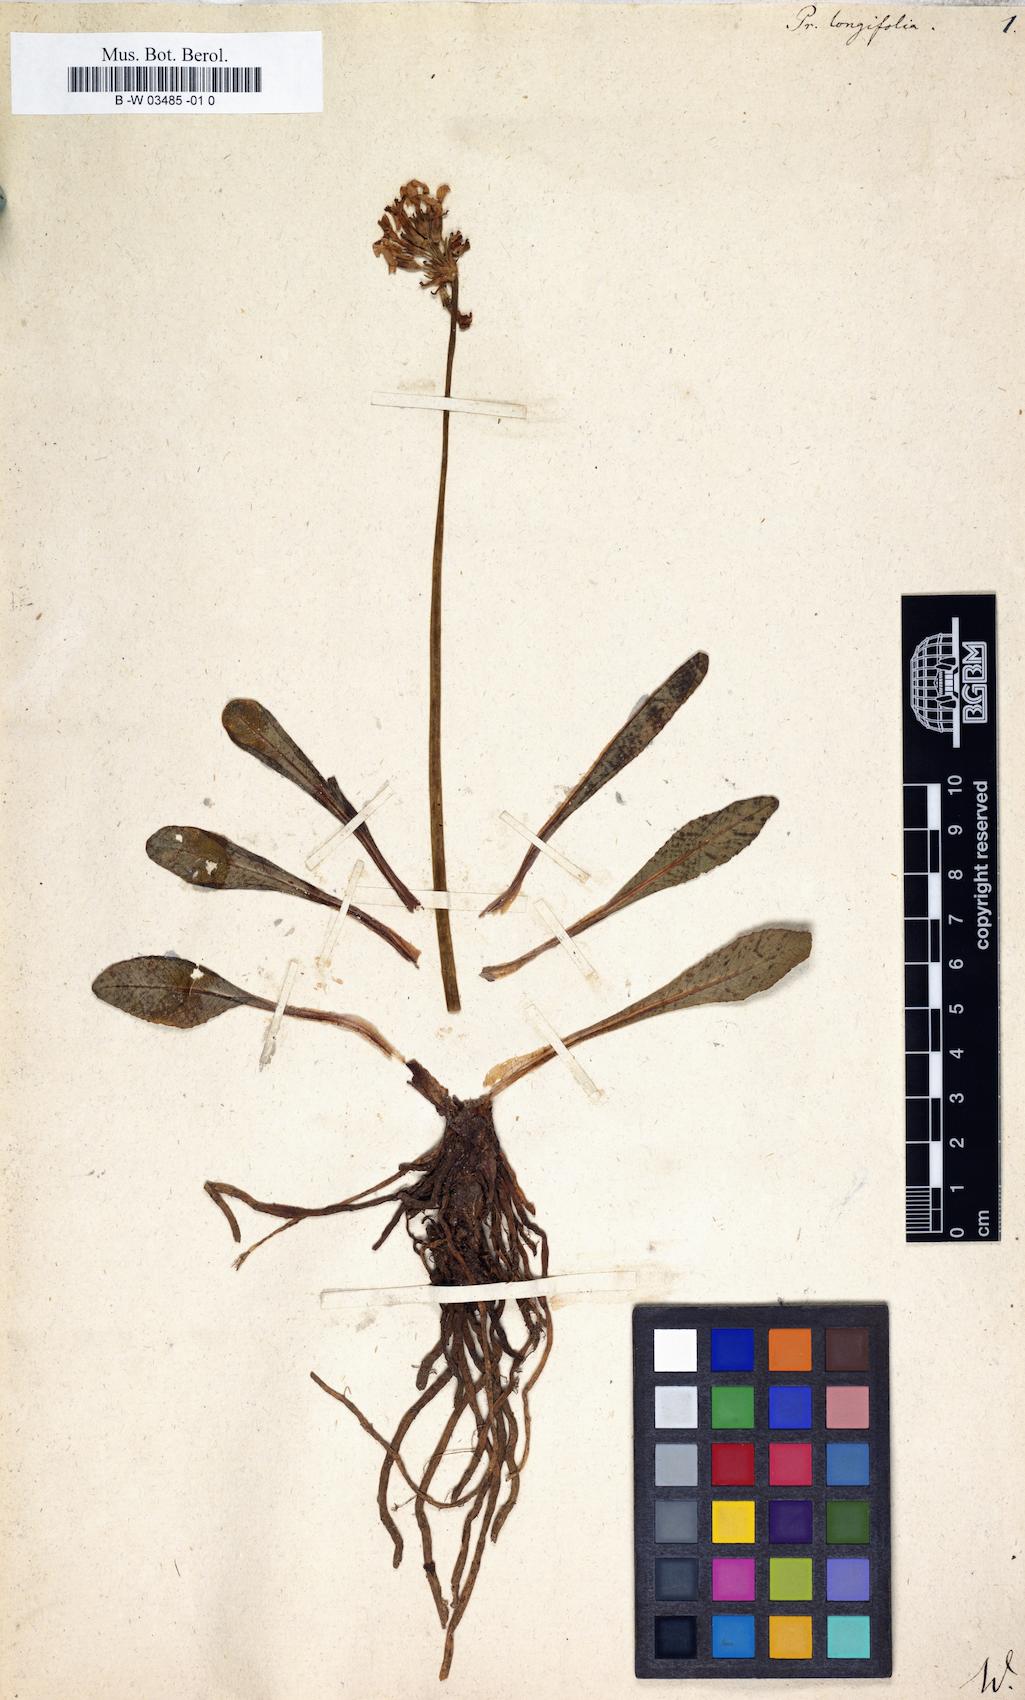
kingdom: Plantae
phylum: Tracheophyta
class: Magnoliopsida
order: Ericales
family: Primulaceae
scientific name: Primulaceae
